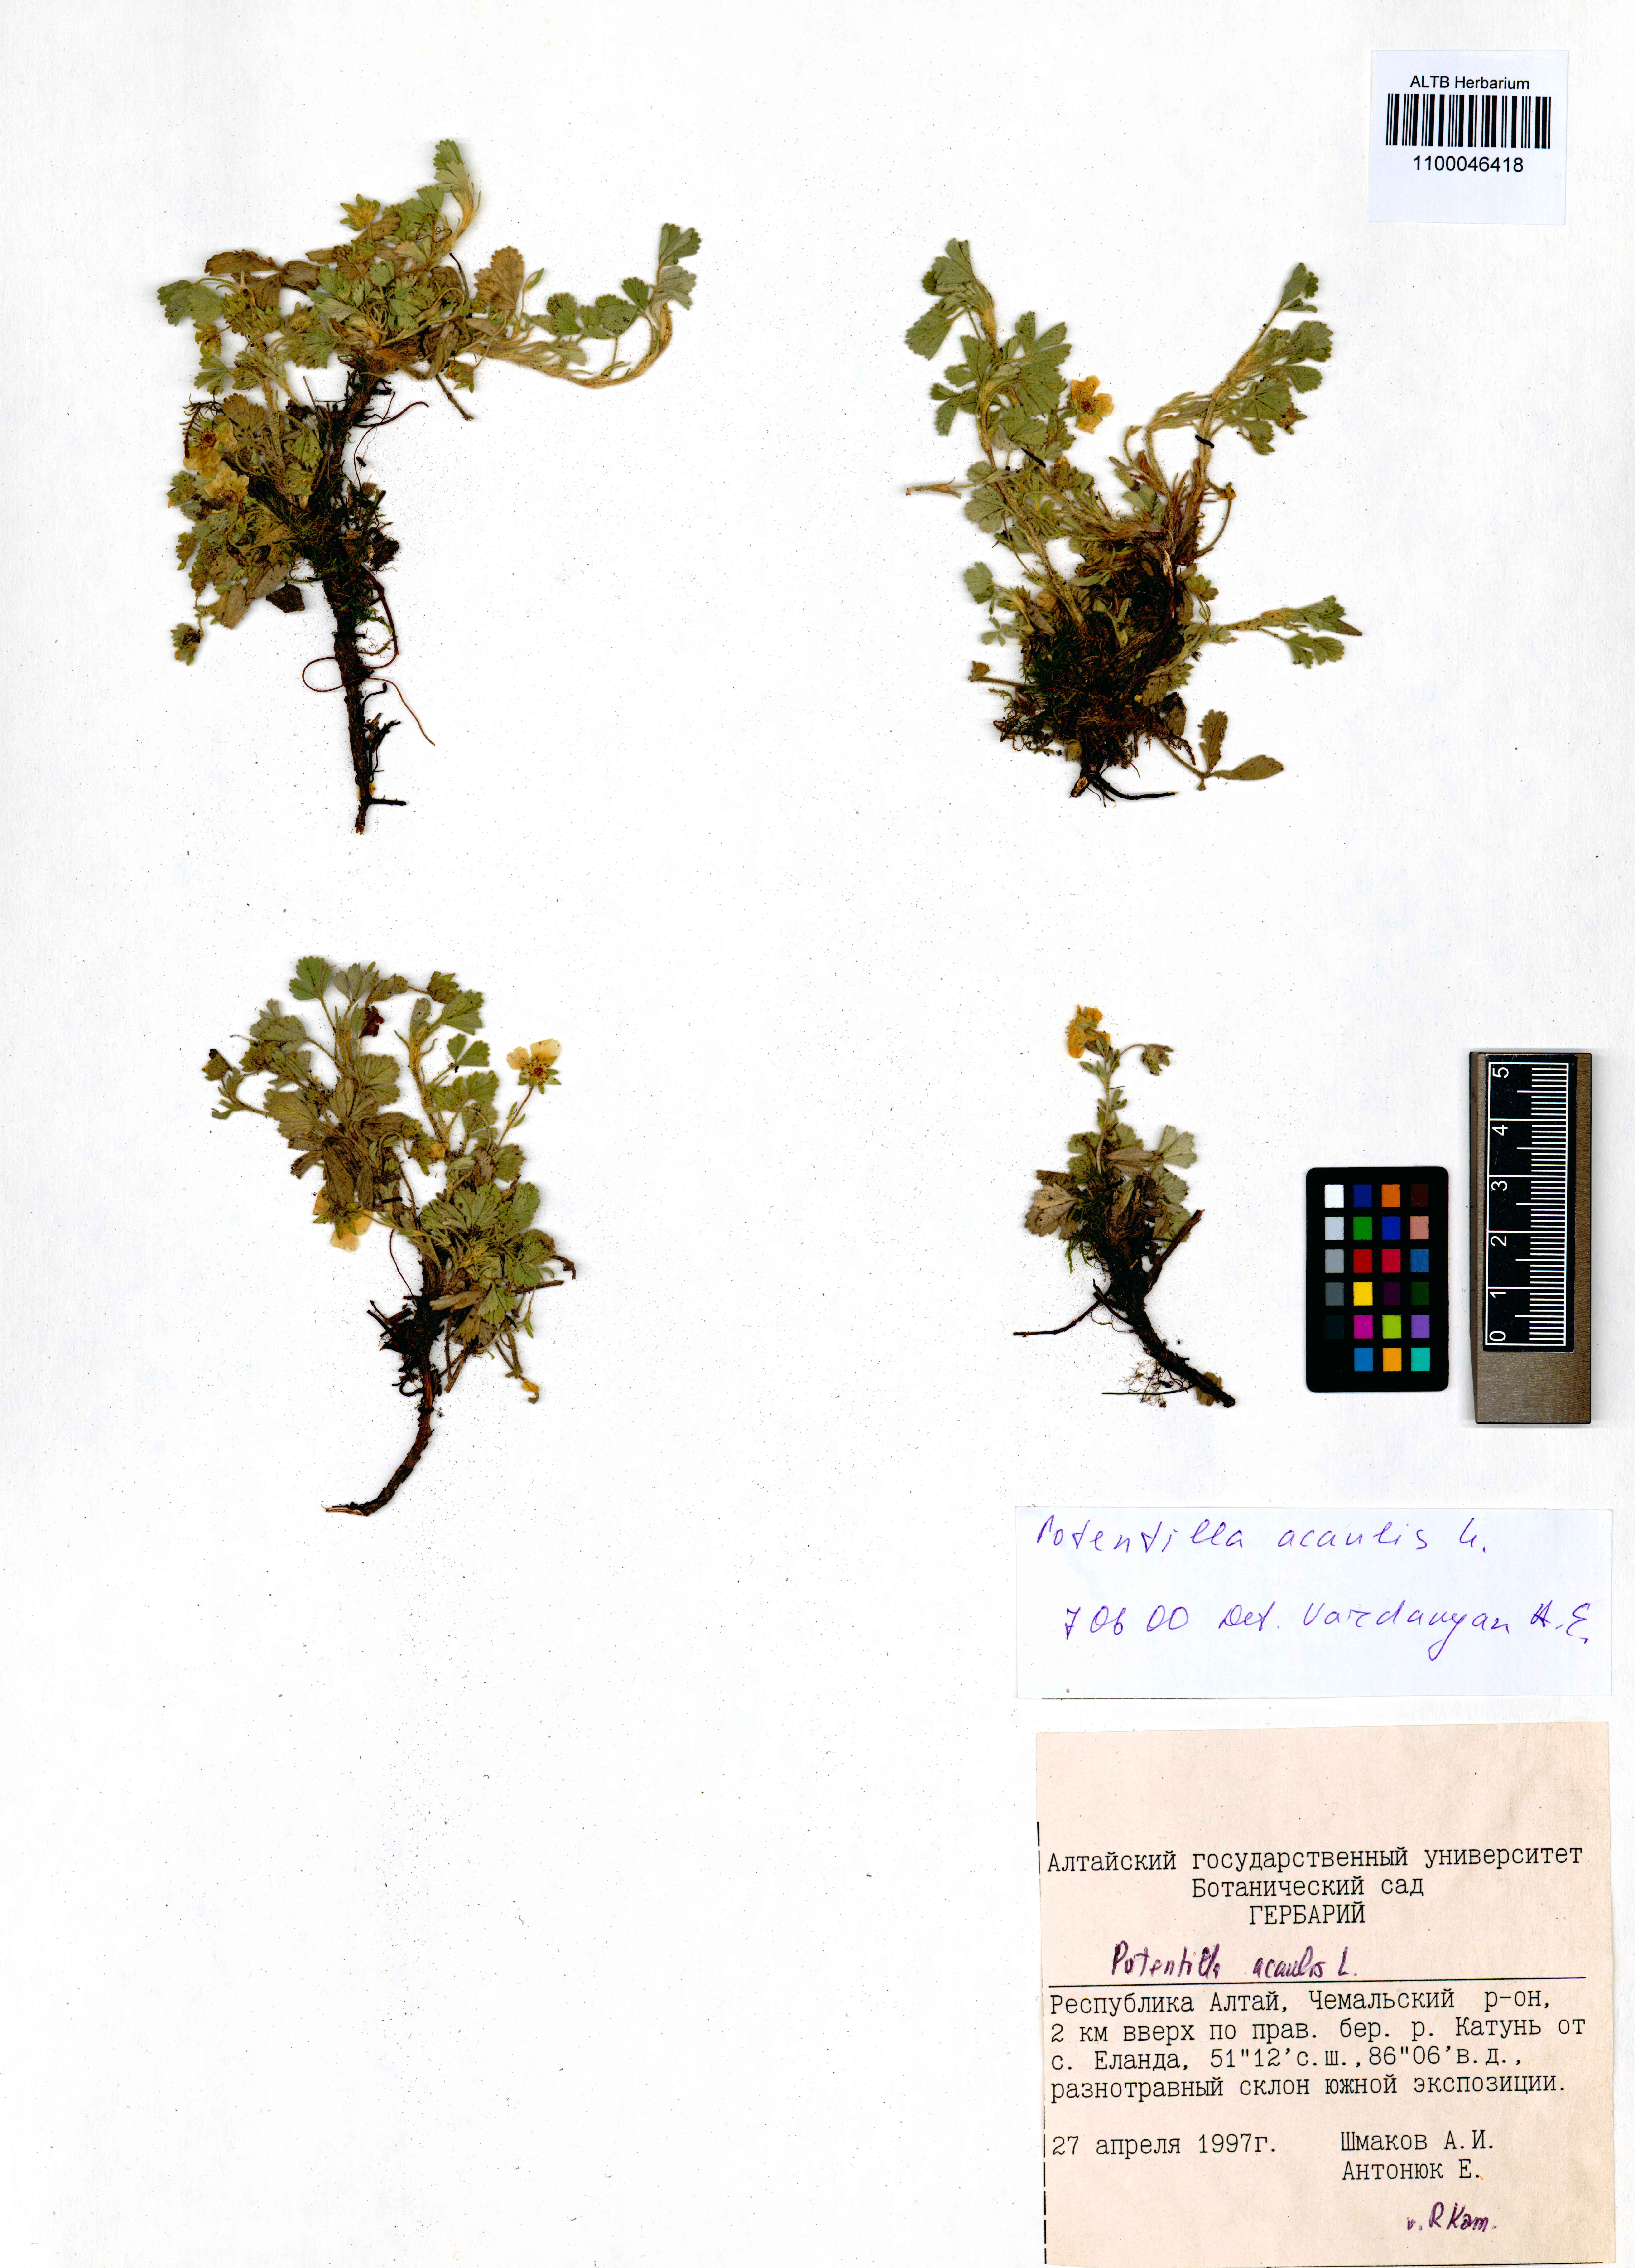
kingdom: Plantae
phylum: Tracheophyta
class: Magnoliopsida
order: Rosales
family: Rosaceae
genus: Potentilla
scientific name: Potentilla acaulis
